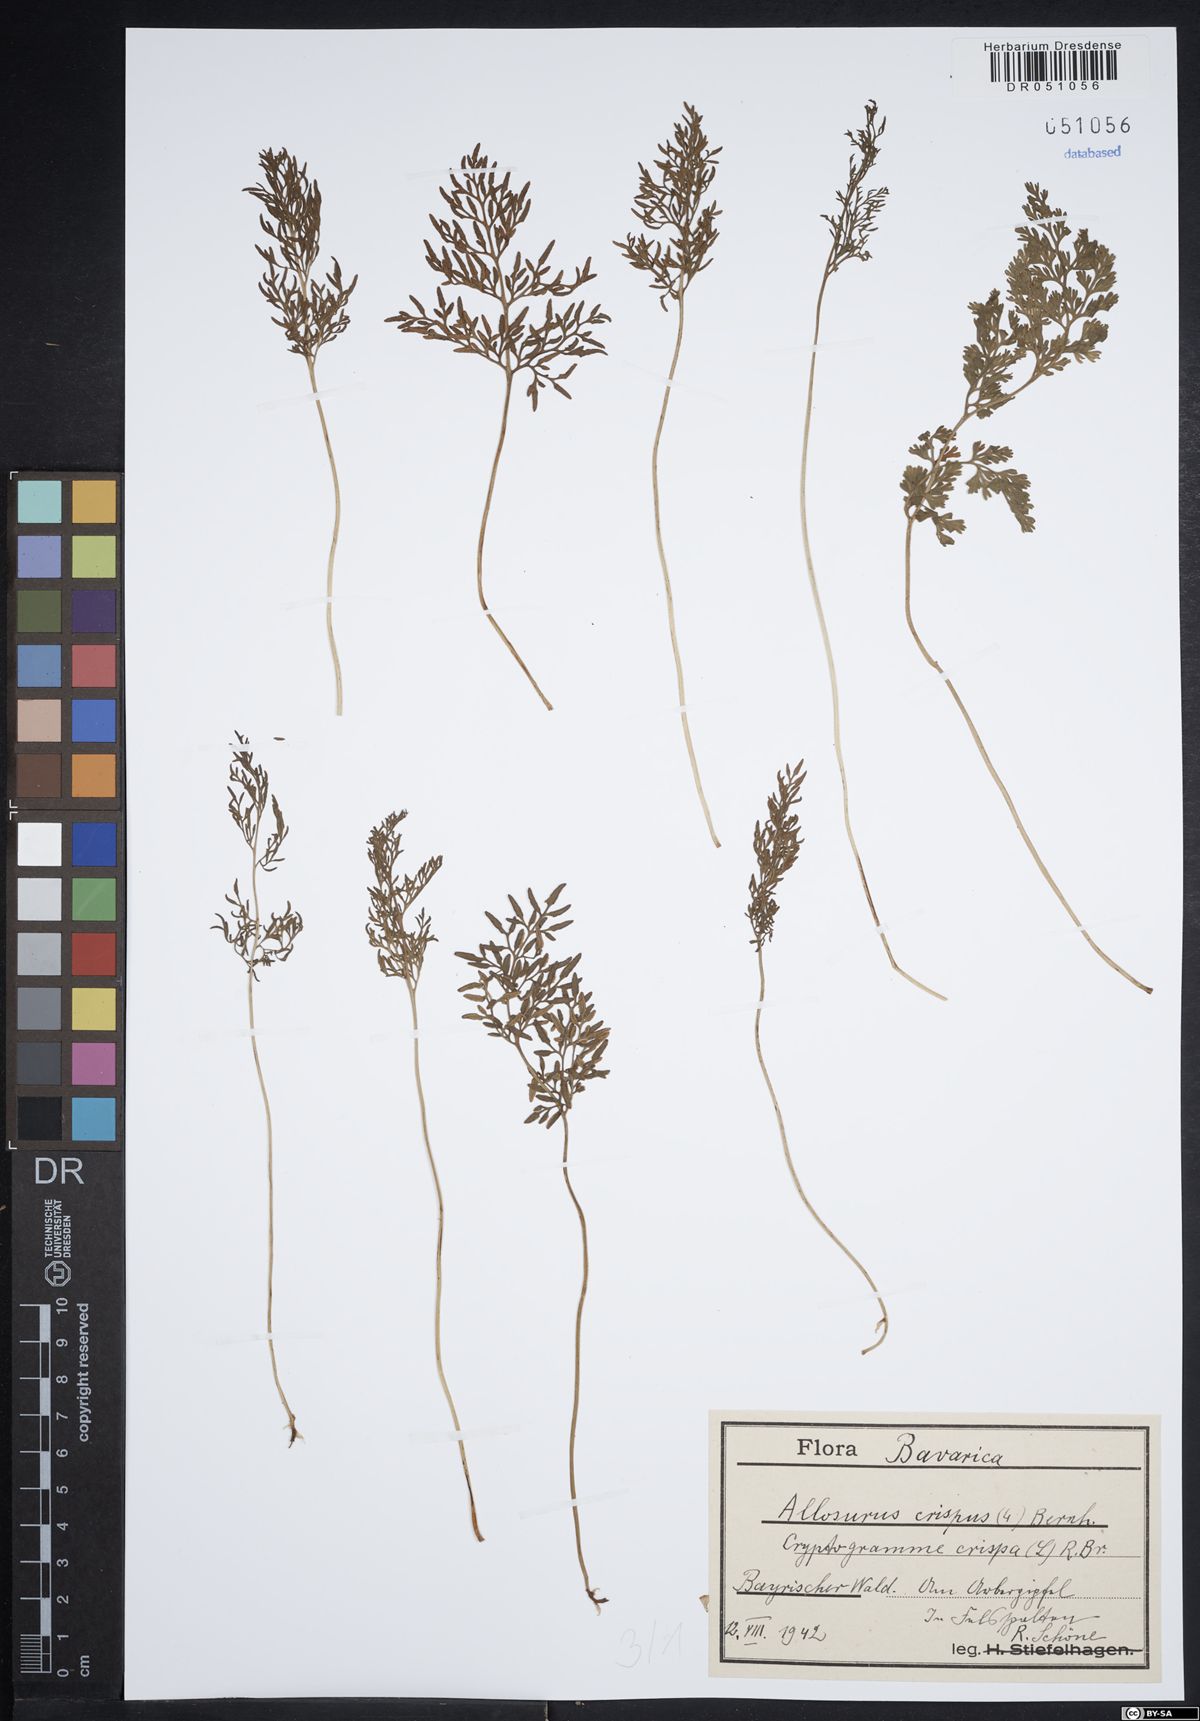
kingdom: Plantae
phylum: Tracheophyta
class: Polypodiopsida
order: Polypodiales
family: Pteridaceae
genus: Cryptogramma
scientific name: Cryptogramma crispa
